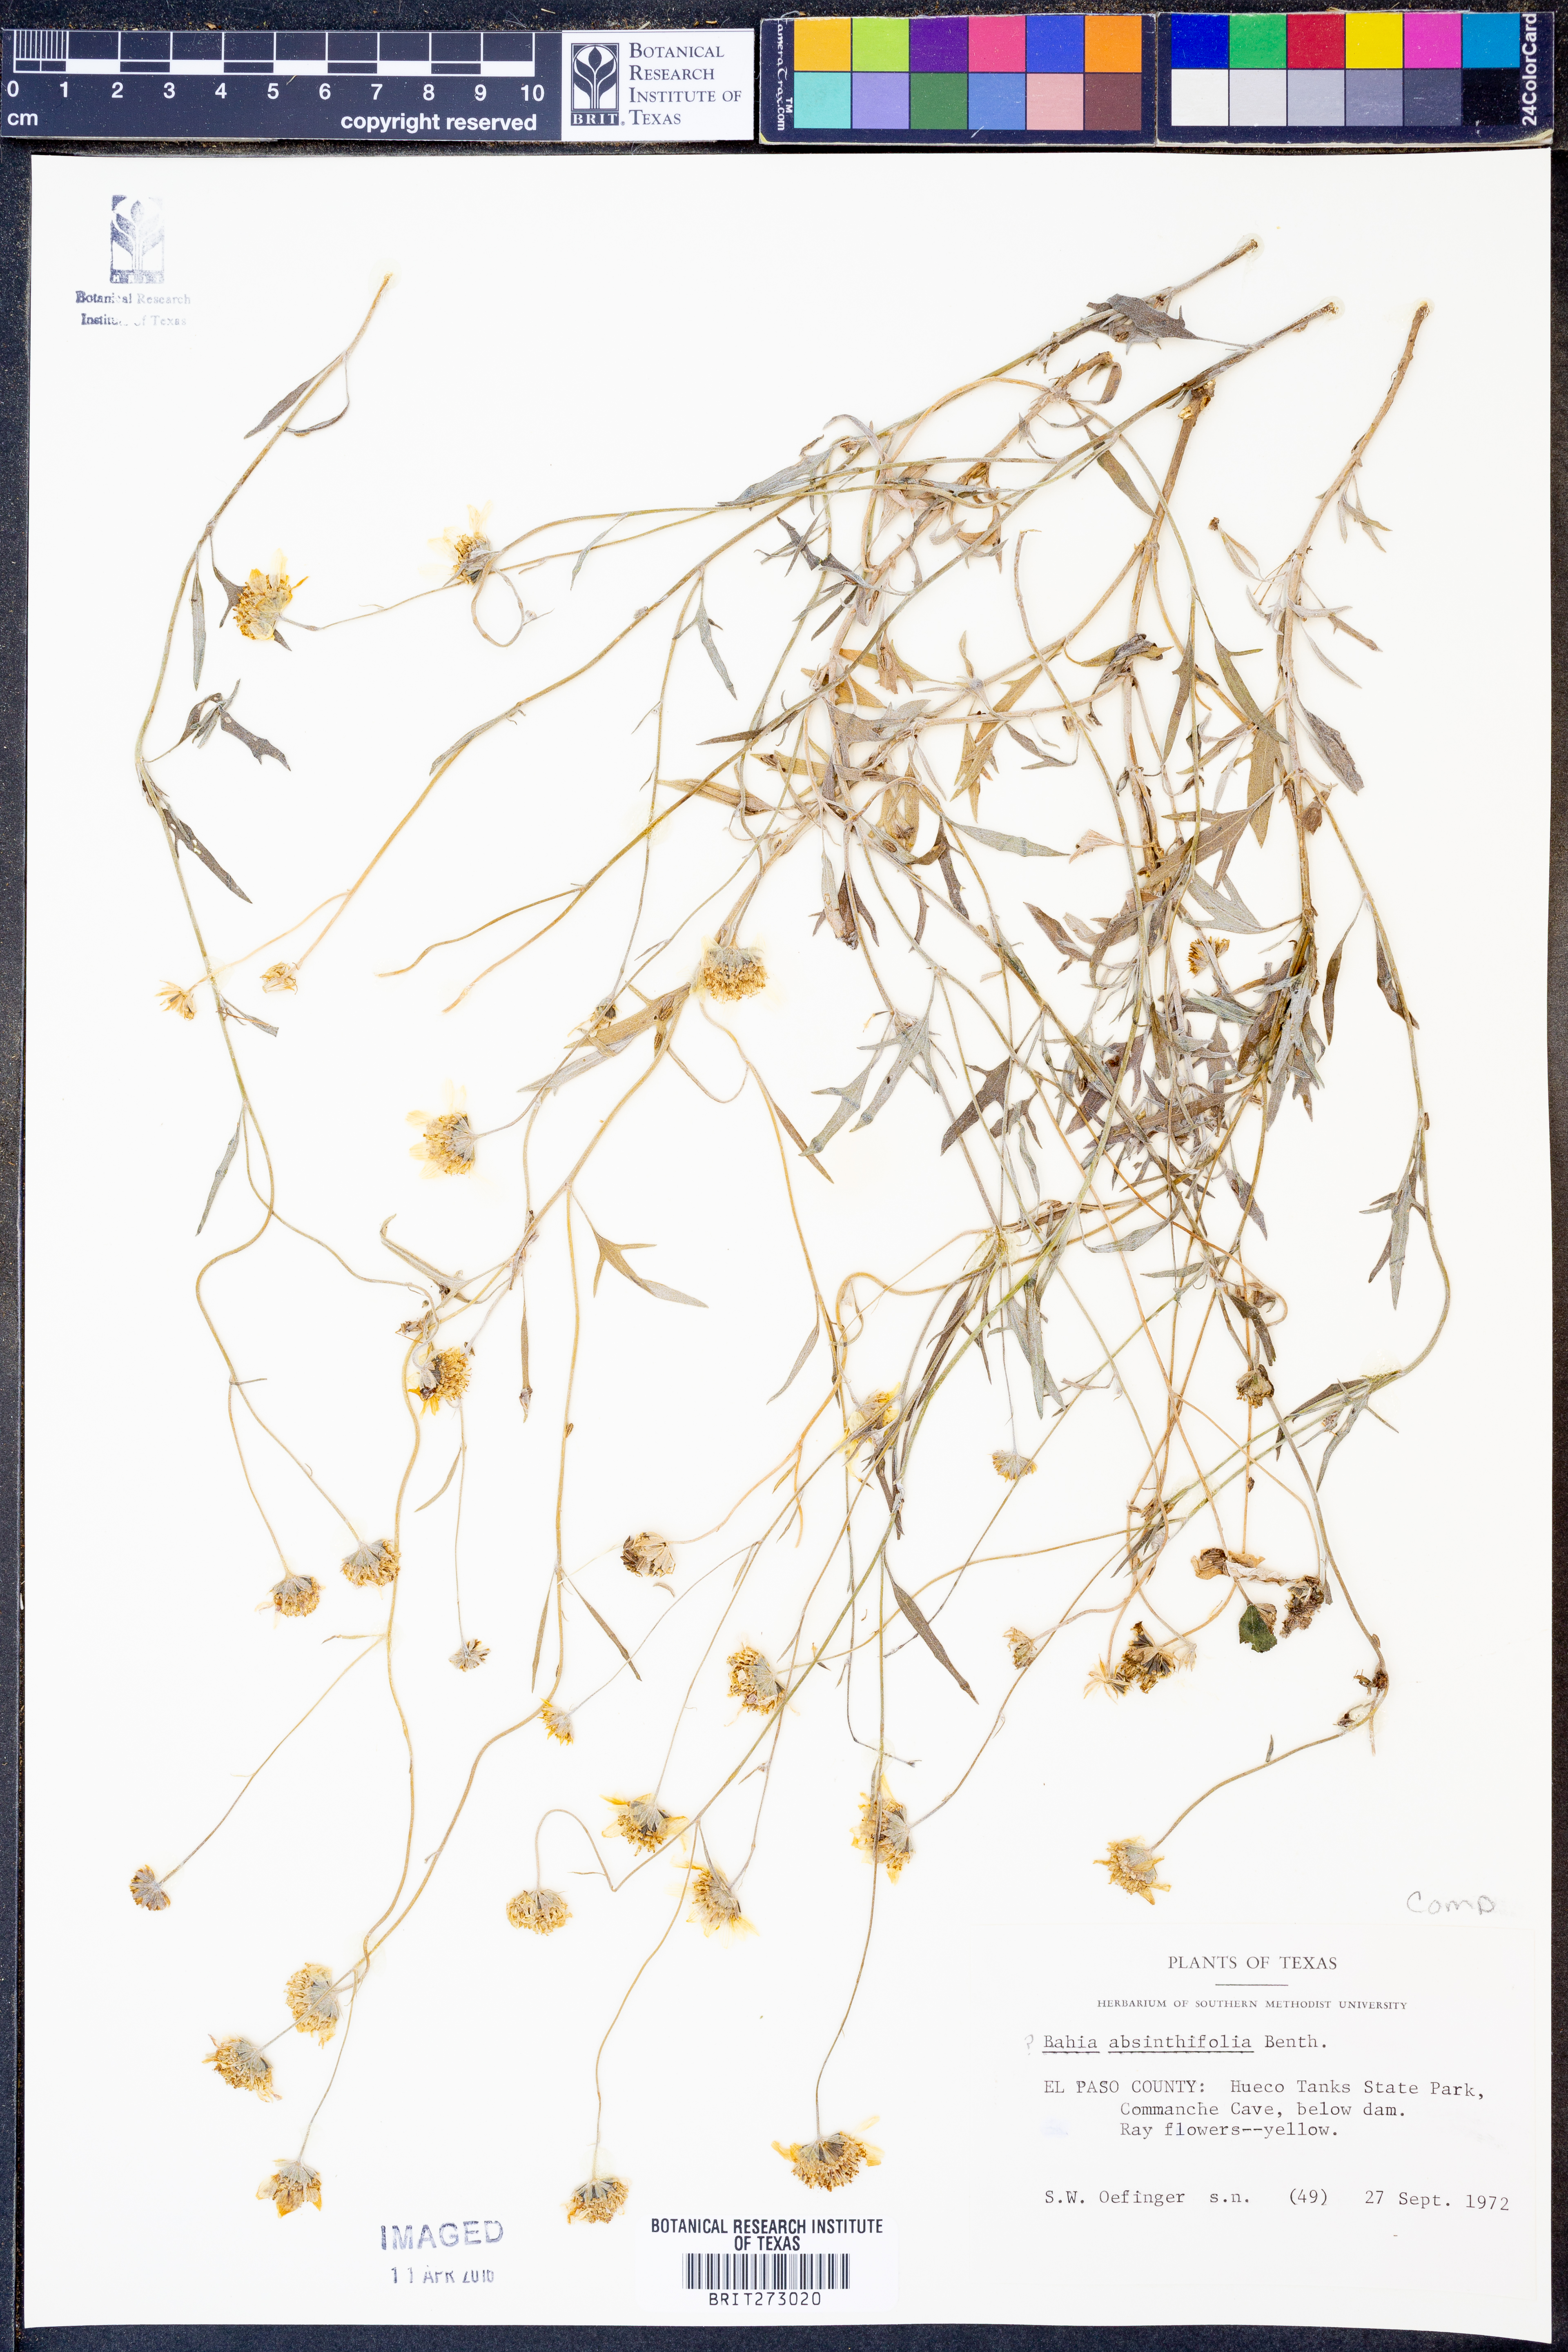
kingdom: Plantae
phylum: Tracheophyta
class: Magnoliopsida
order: Asterales
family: Asteraceae
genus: Picradeniopsis
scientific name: Picradeniopsis absinthifolia
